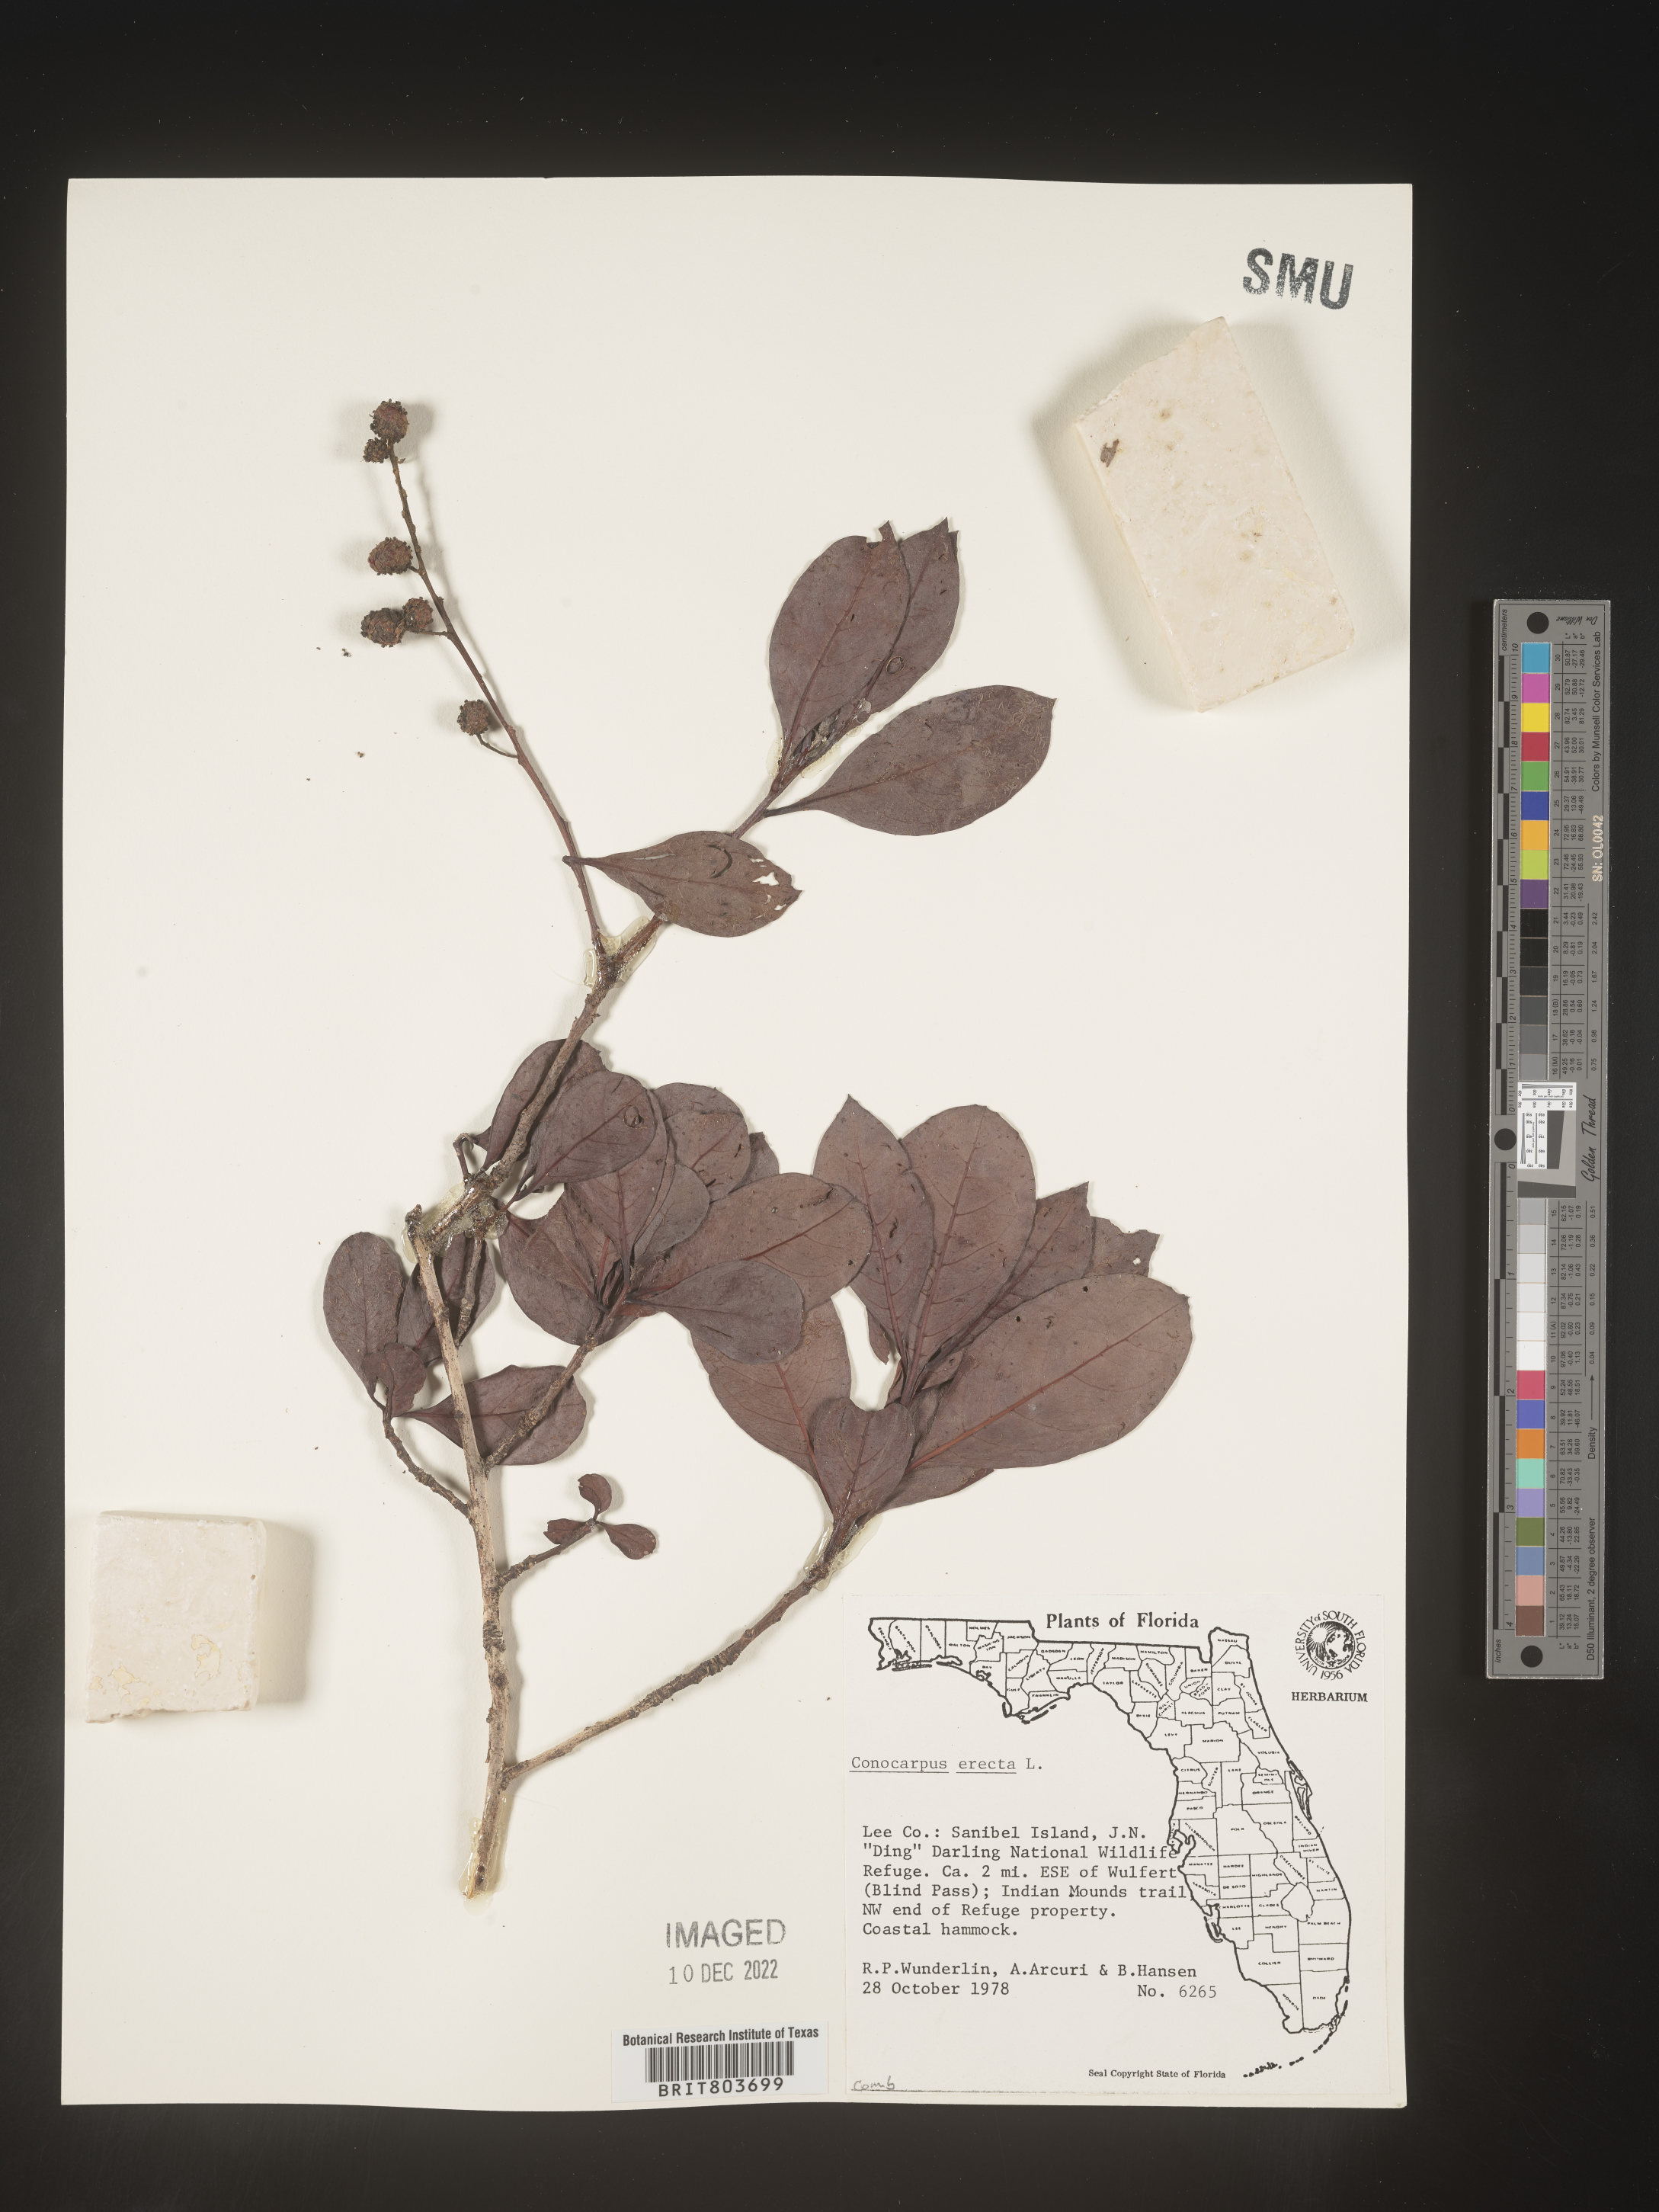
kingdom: Plantae
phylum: Tracheophyta
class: Magnoliopsida
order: Myrtales
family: Combretaceae
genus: Conocarpus
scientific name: Conocarpus erectus
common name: Button mangrove
